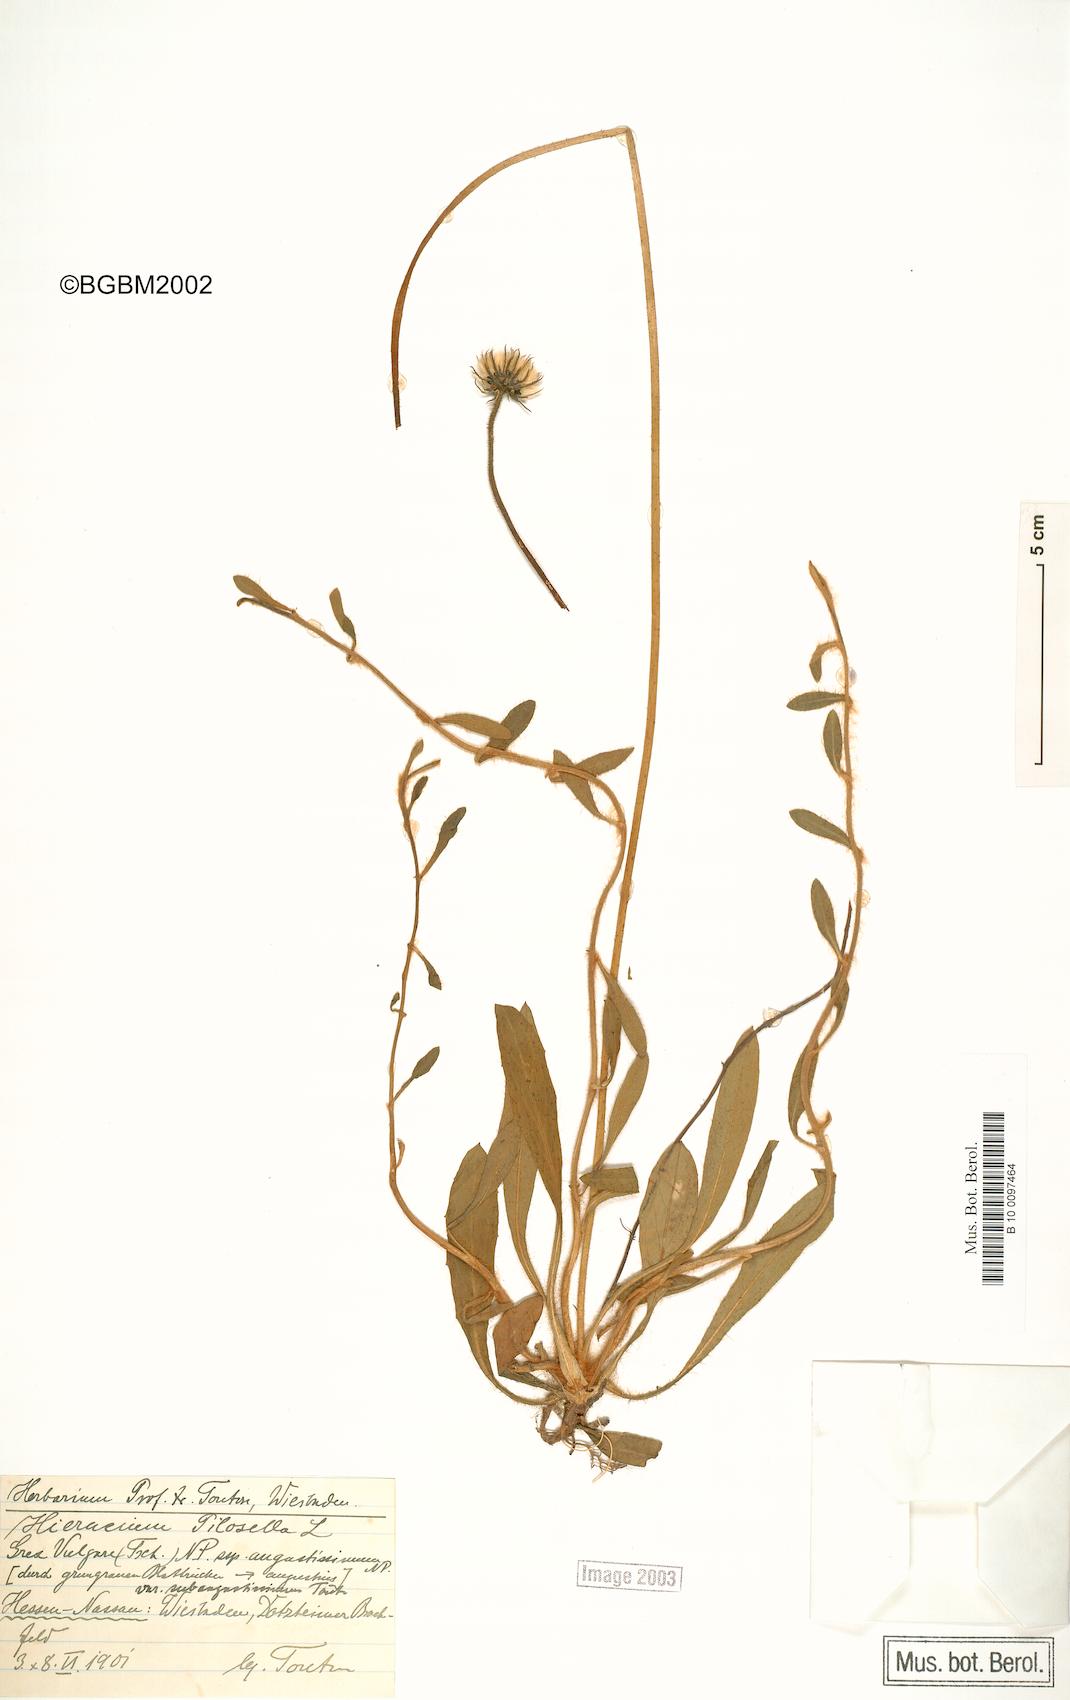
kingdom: Plantae
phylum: Tracheophyta
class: Magnoliopsida
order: Asterales
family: Asteraceae
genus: Pilosella
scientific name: Pilosella officinarum
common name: Mouse-ear hawkweed
